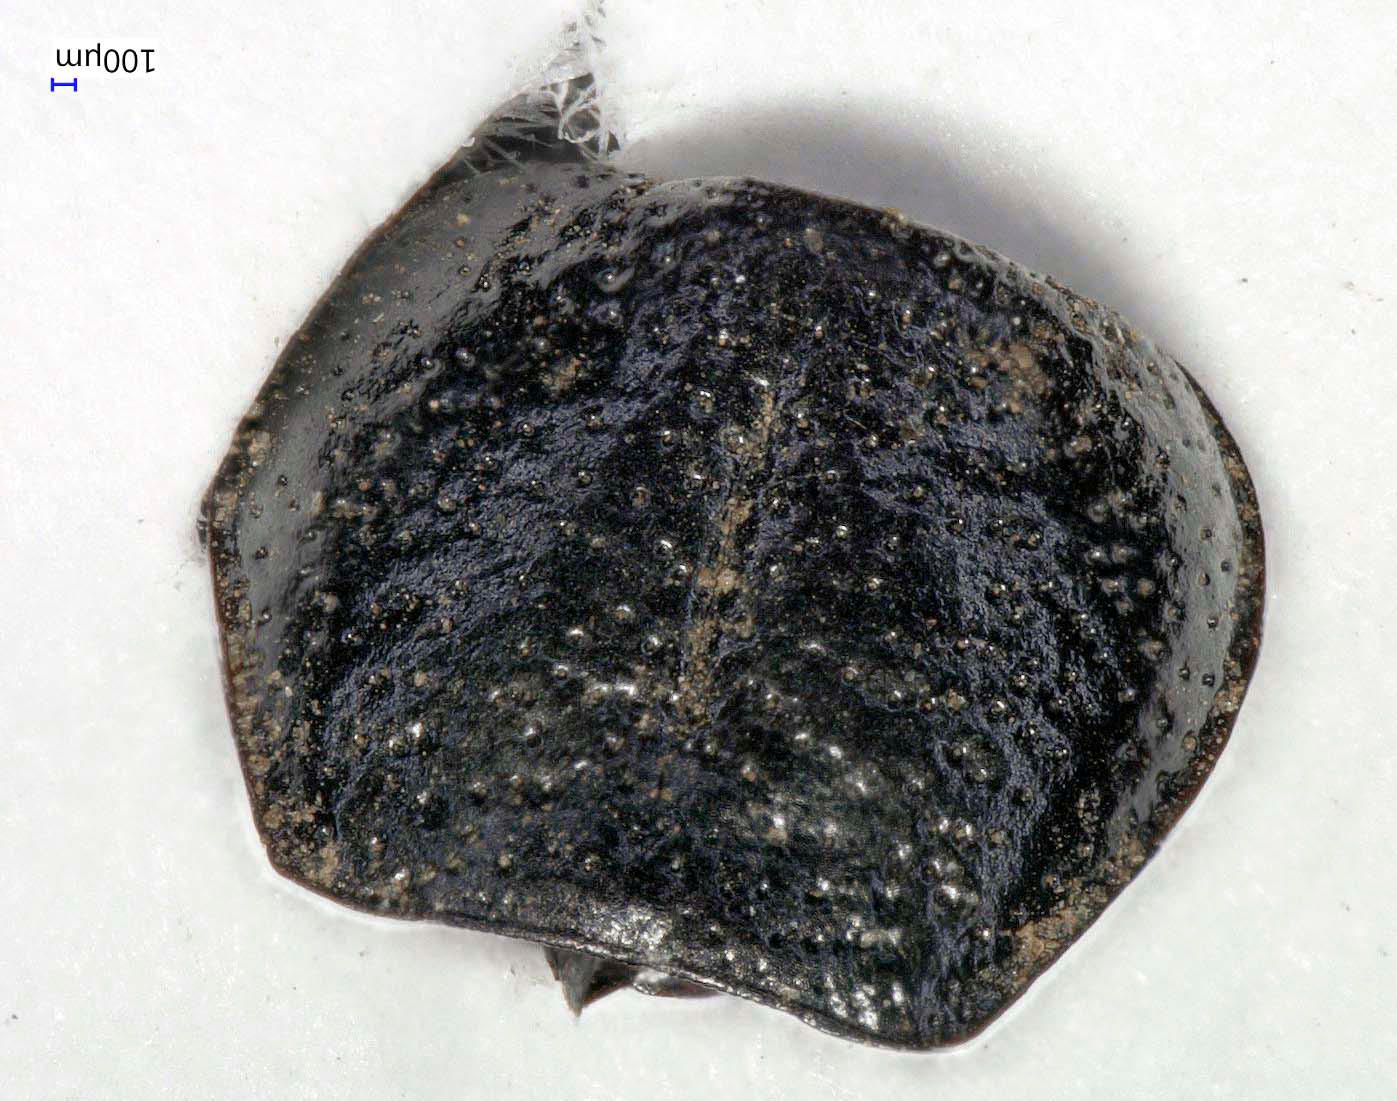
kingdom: Animalia
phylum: Arthropoda
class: Insecta
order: Coleoptera
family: Carabidae
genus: Dicheirus
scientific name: Dicheirus dilatatus
